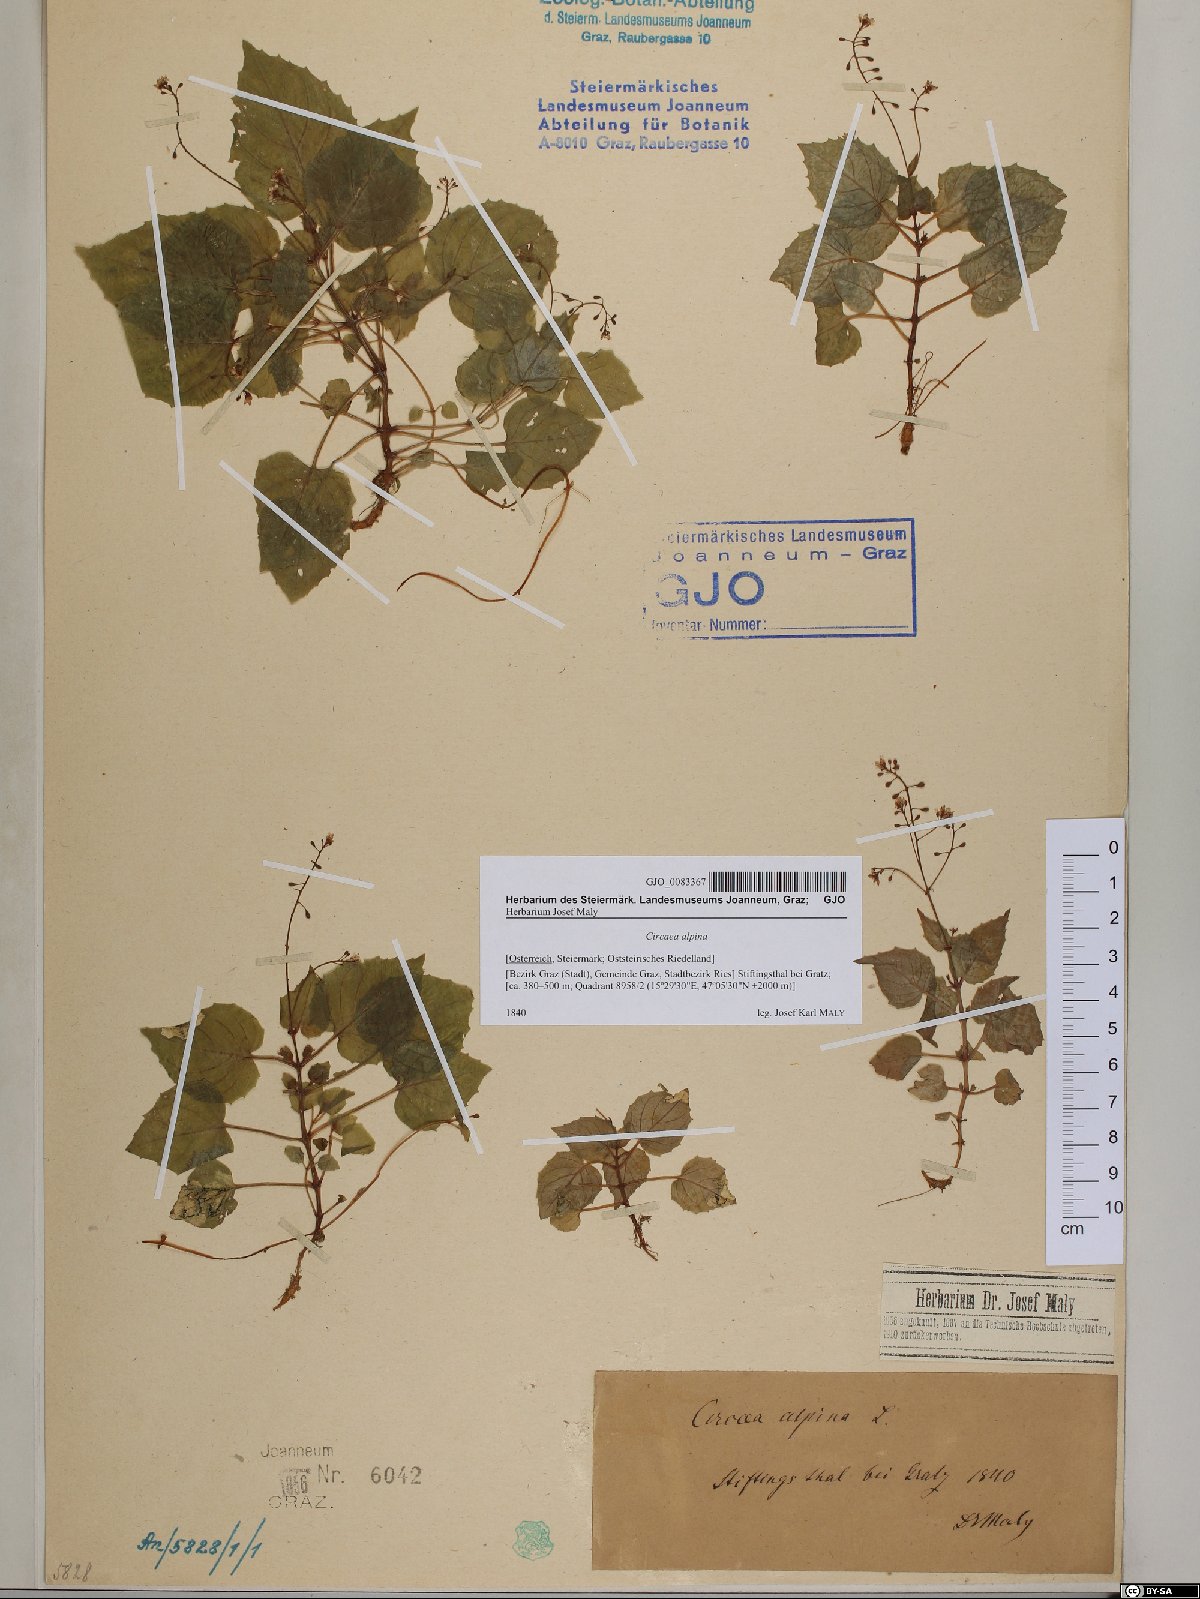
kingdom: Plantae
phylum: Tracheophyta
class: Magnoliopsida
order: Myrtales
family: Onagraceae
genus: Circaea
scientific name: Circaea alpina
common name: Alpine enchanter's-nightshade
